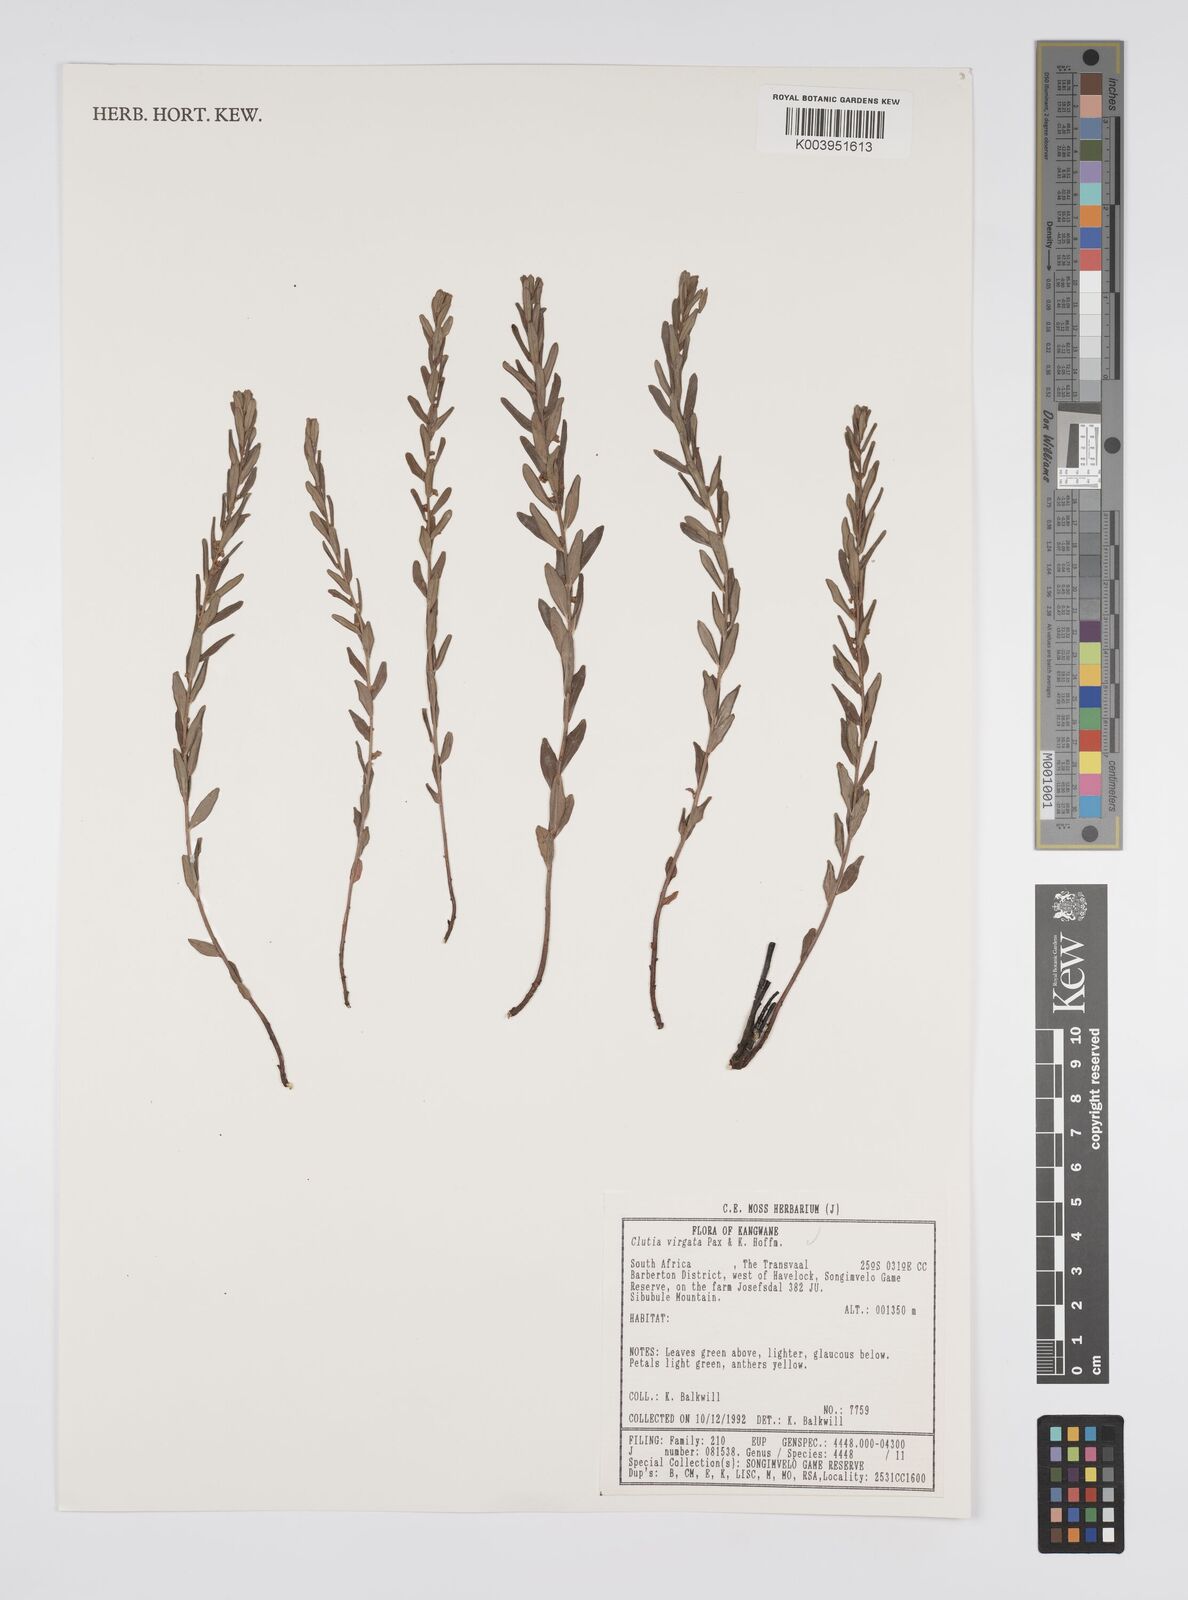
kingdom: Plantae
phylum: Tracheophyta
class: Magnoliopsida
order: Malpighiales
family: Peraceae
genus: Clutia
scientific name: Clutia virgata
